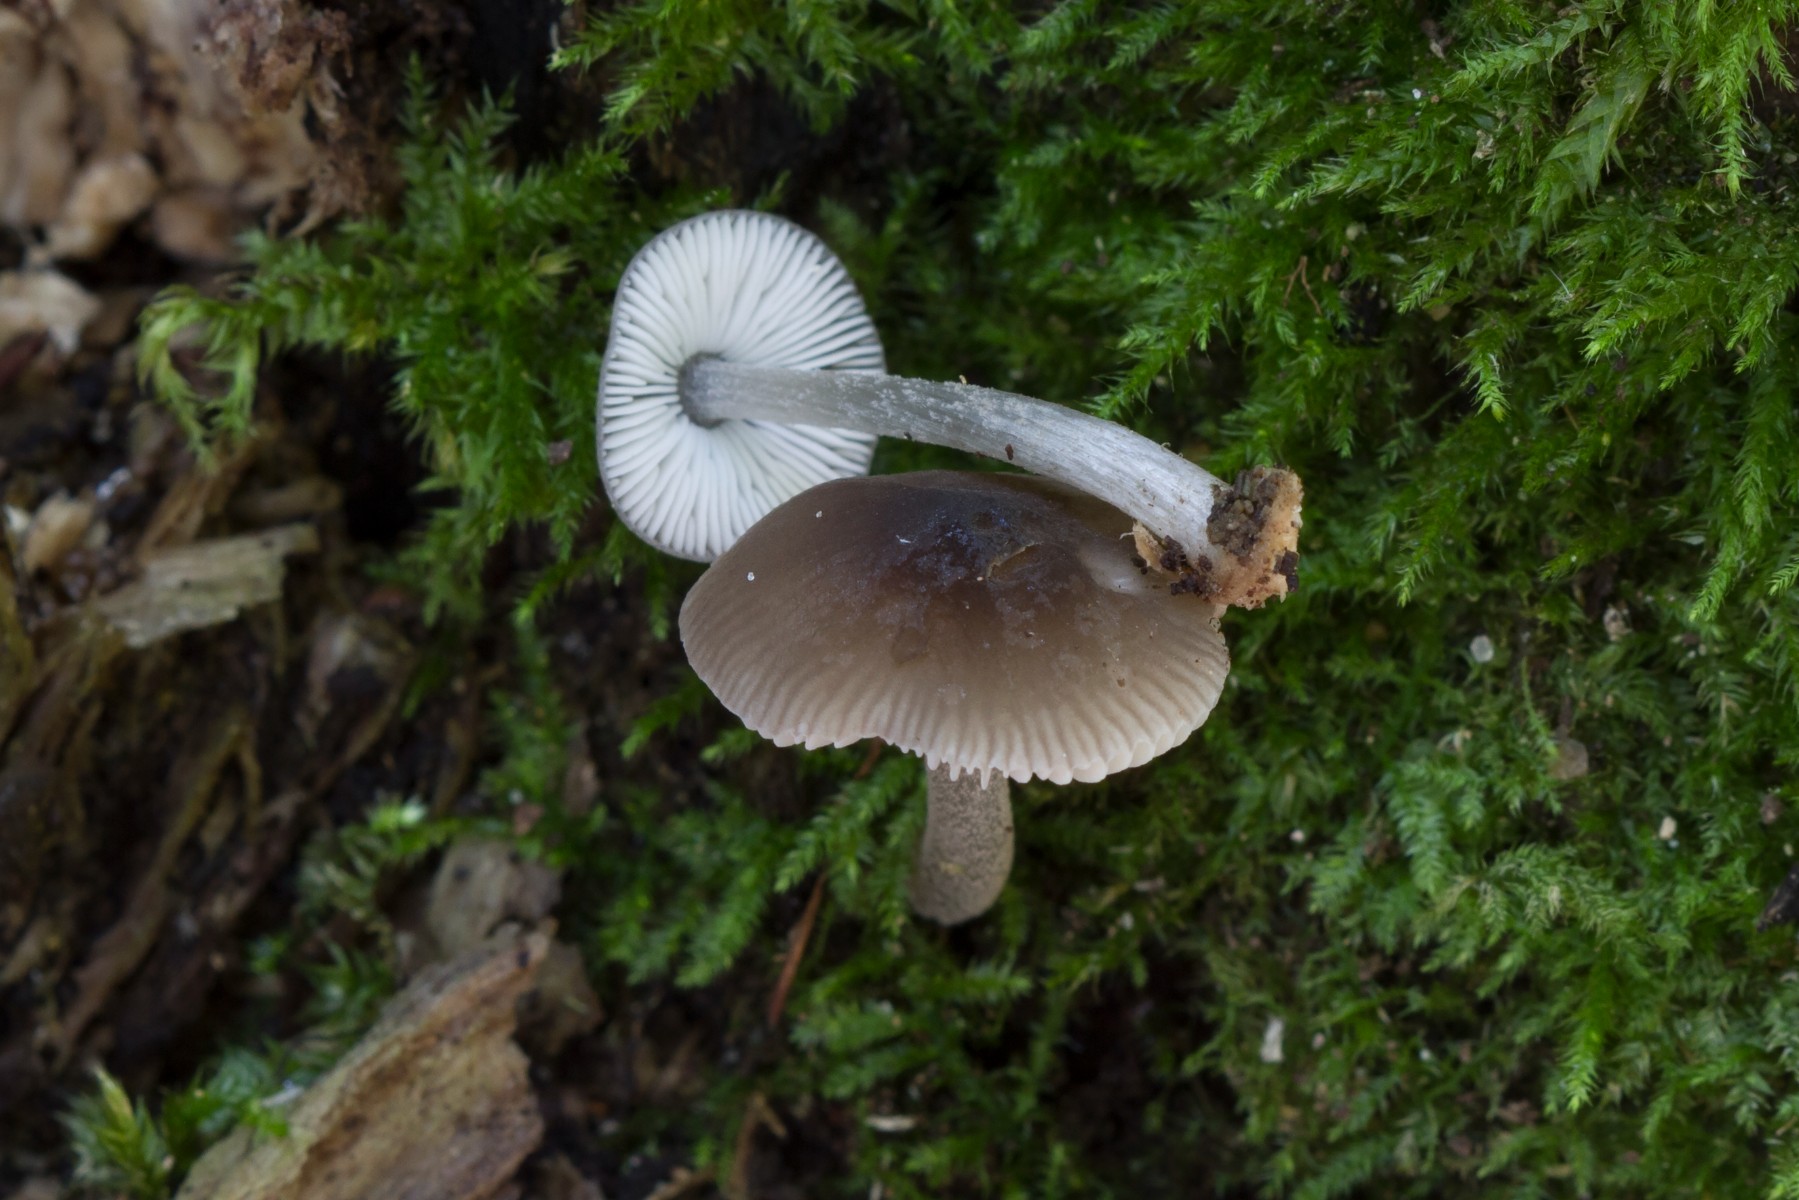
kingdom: Fungi
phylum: Basidiomycota
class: Agaricomycetes
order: Agaricales
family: Pluteaceae
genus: Pluteus
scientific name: Pluteus reisneri
